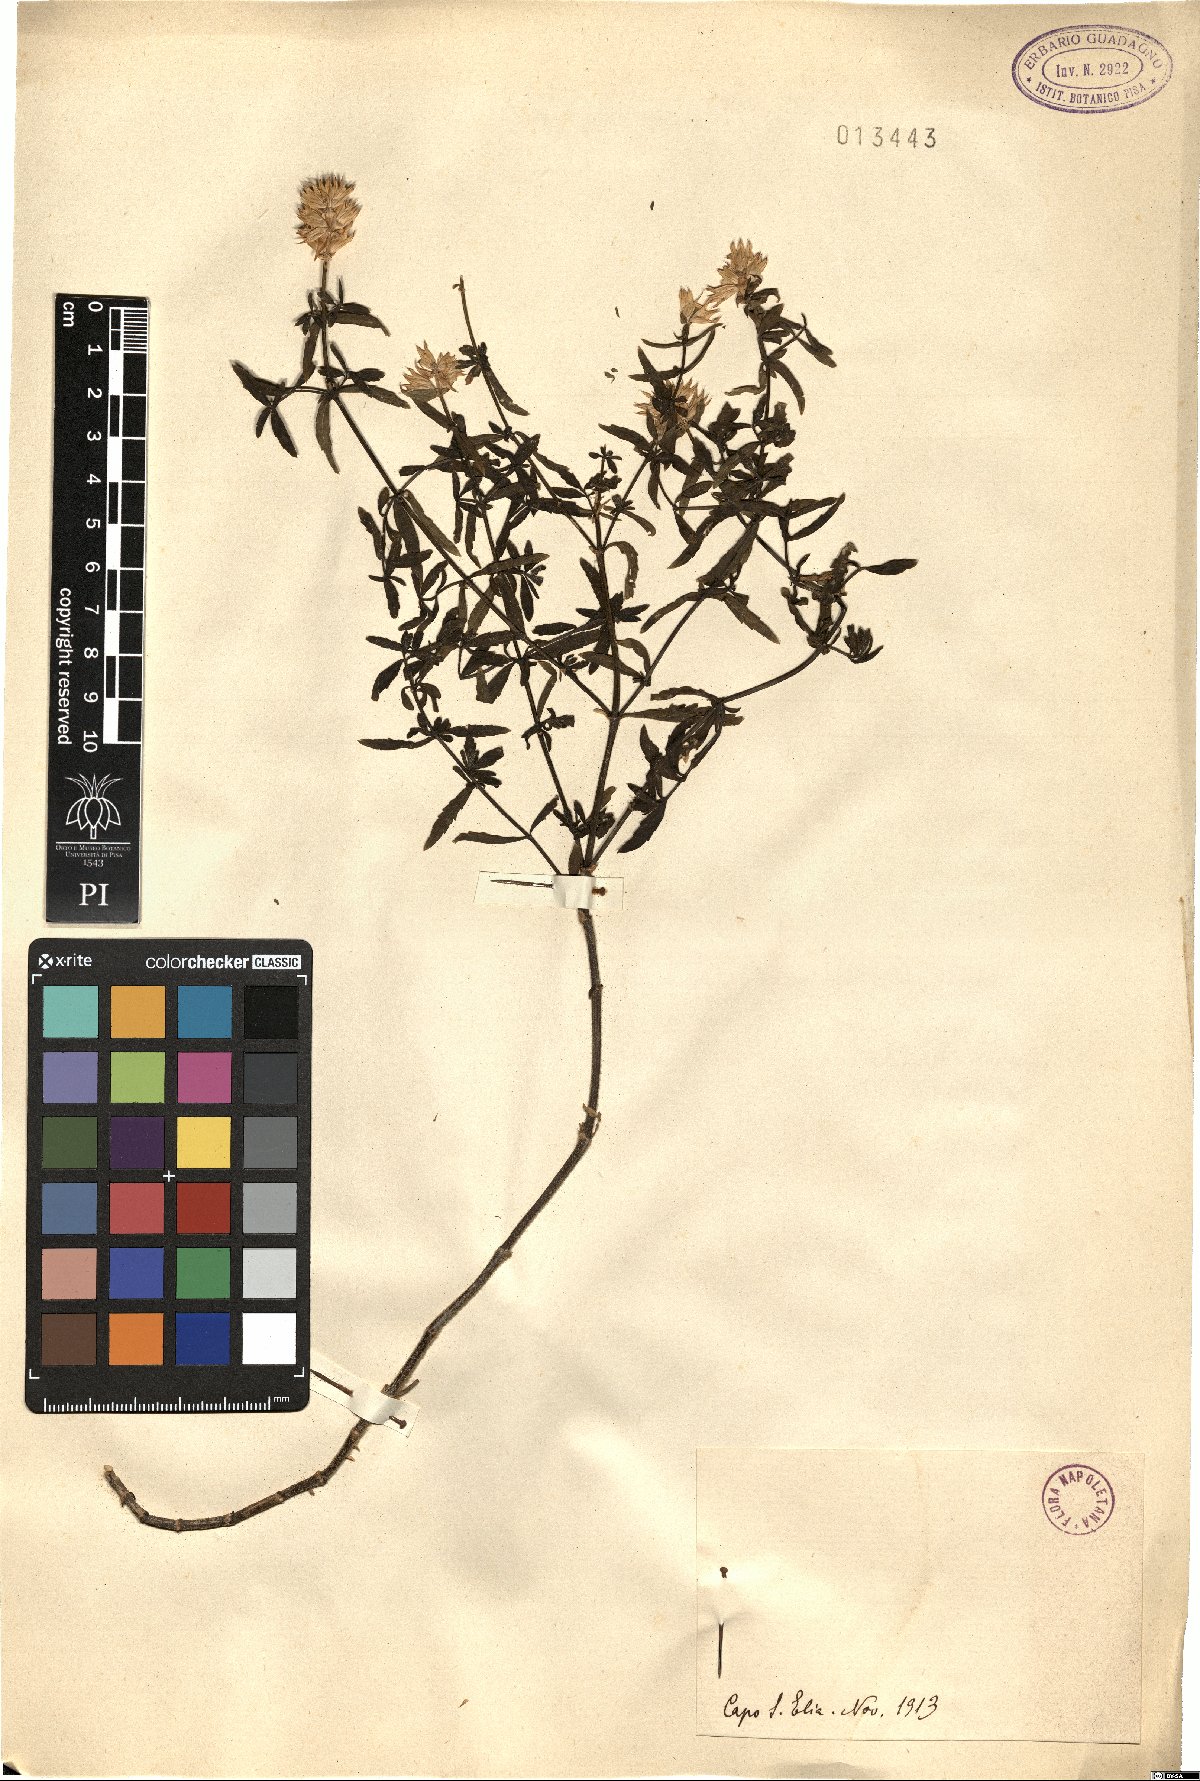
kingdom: Plantae
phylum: Tracheophyta
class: Magnoliopsida
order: Lamiales
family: Lamiaceae
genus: Stachys
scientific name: Stachys
